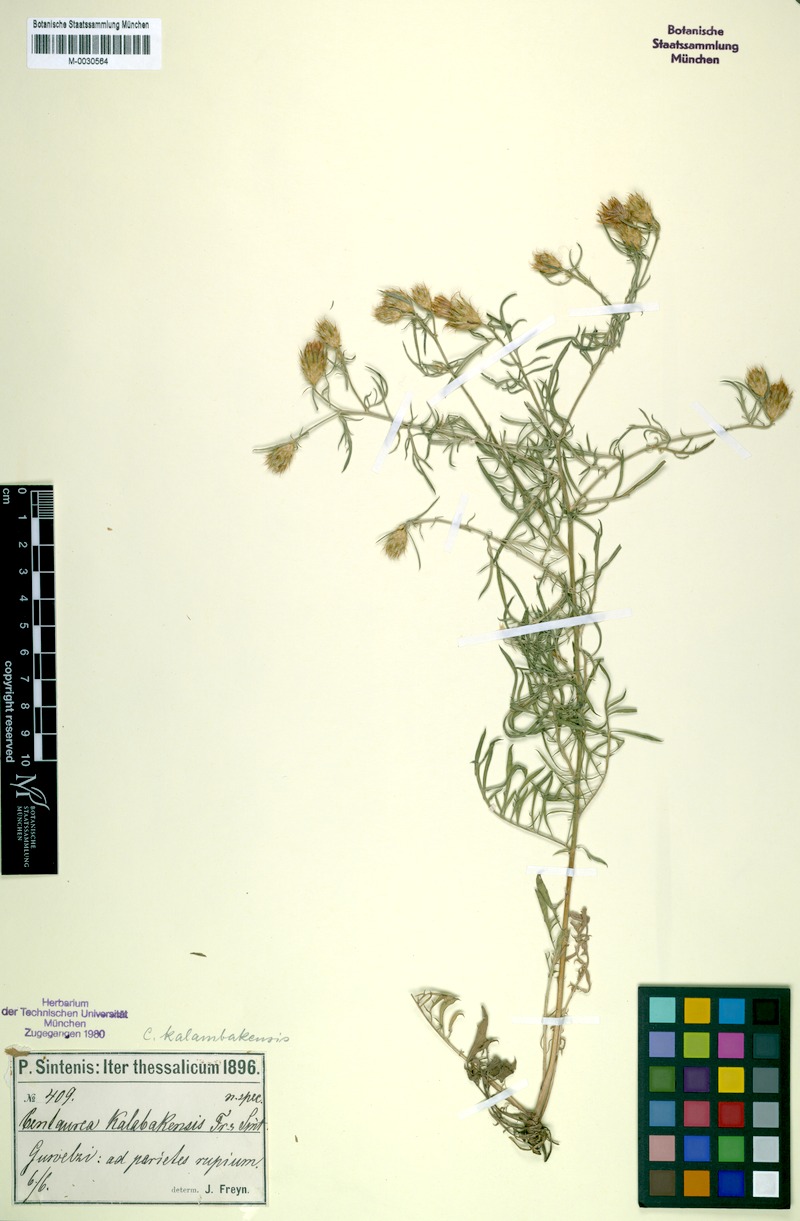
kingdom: Plantae
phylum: Tracheophyta
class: Magnoliopsida
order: Asterales
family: Asteraceae
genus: Centaurea
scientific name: Centaurea kalambakensis
